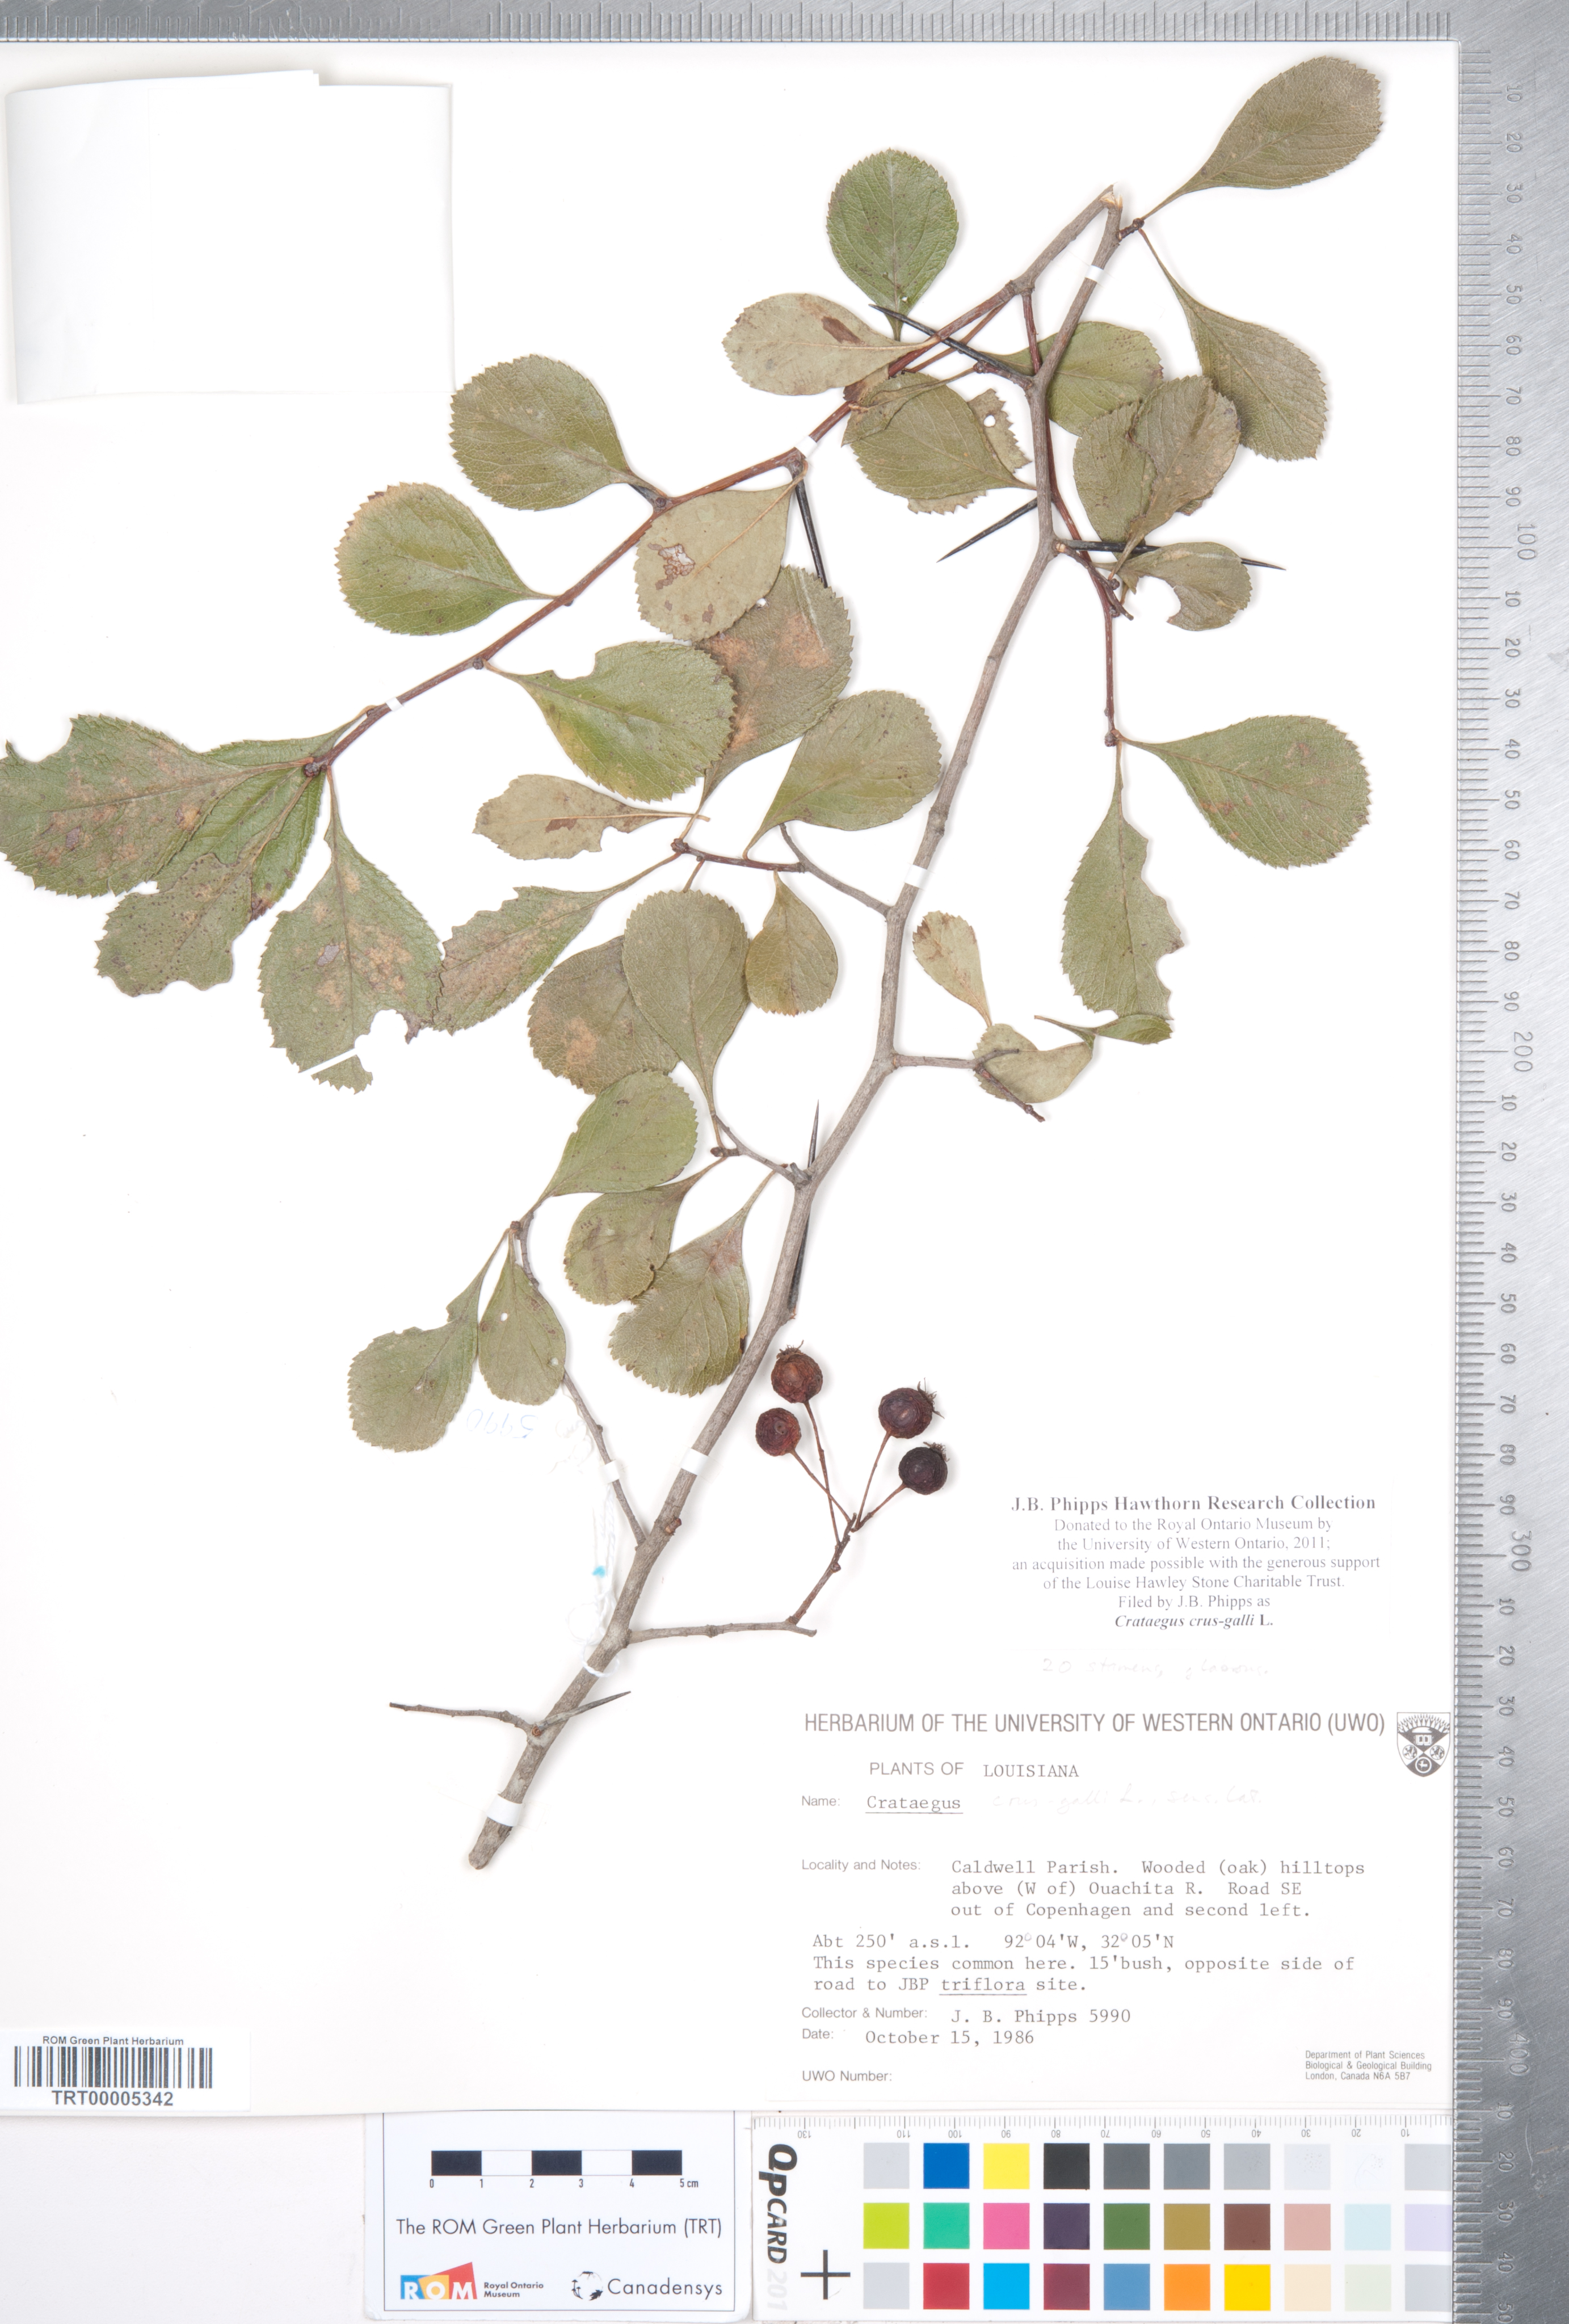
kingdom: Plantae
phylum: Tracheophyta
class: Magnoliopsida
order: Rosales
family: Rosaceae
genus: Crataegus
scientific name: Crataegus crus-galli
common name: Cockspurthorn
